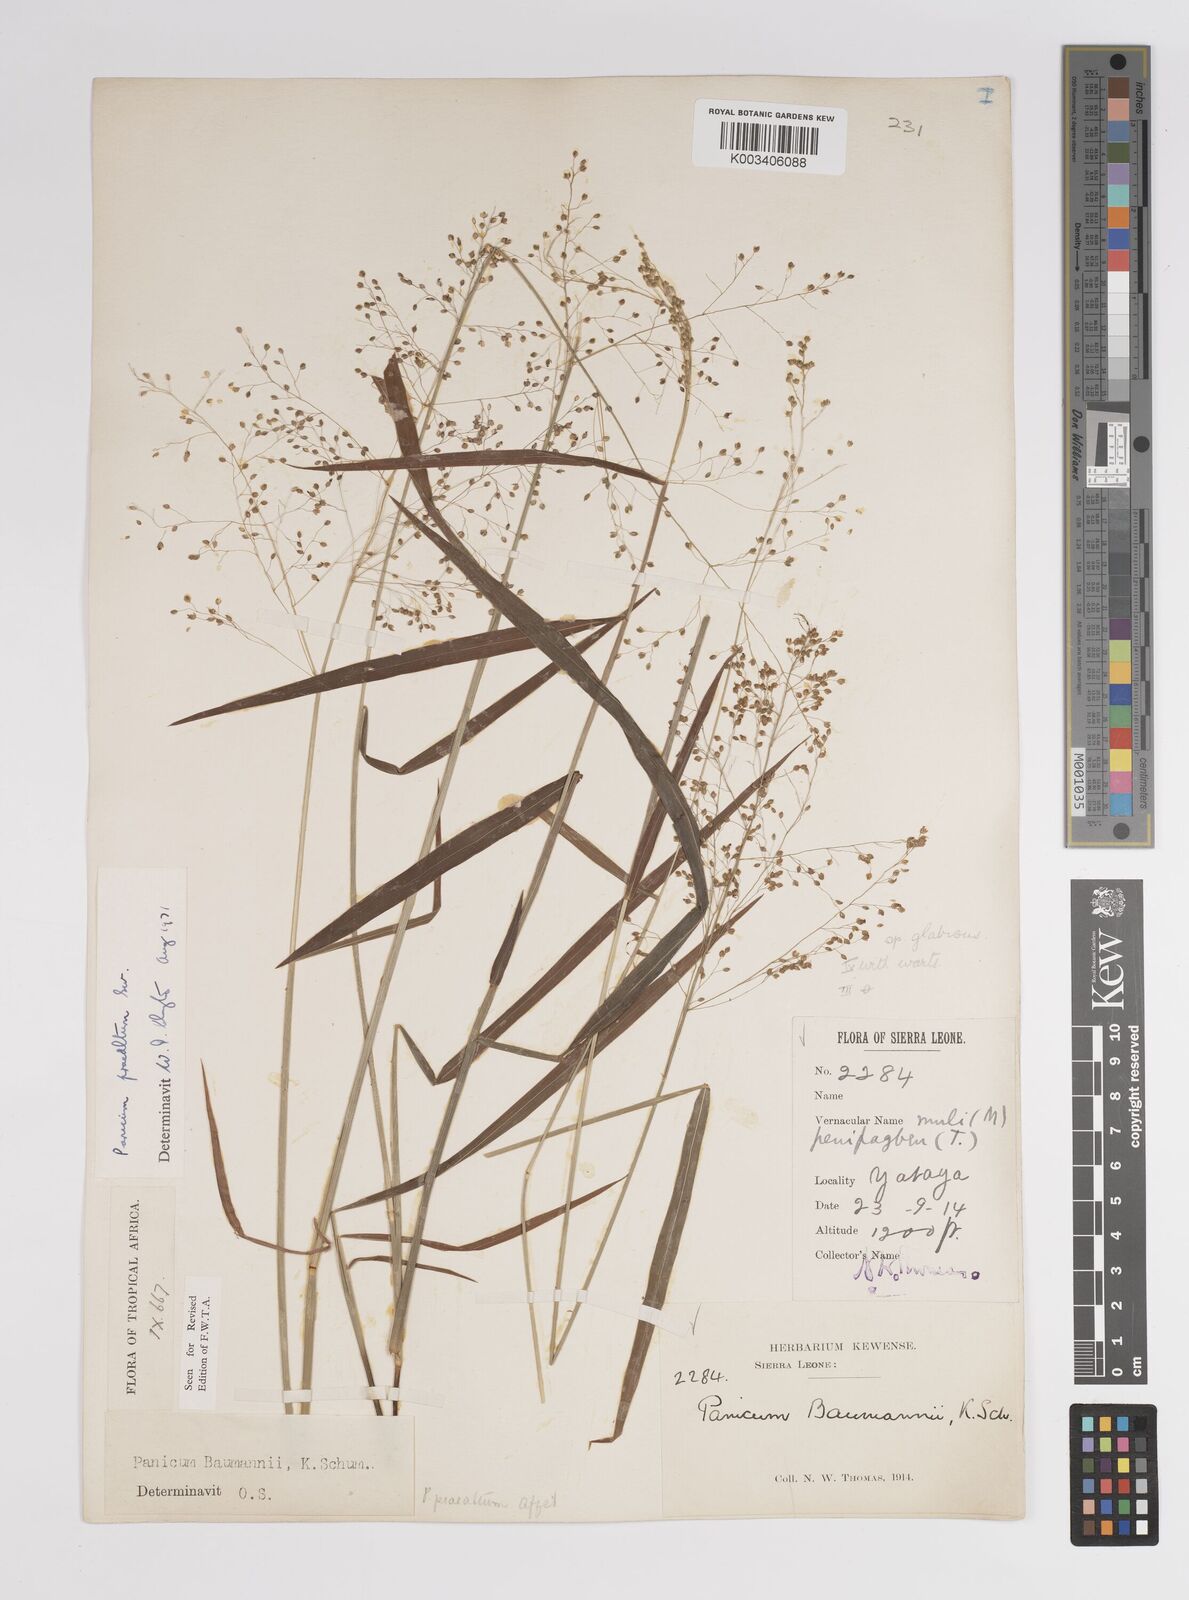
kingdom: Plantae
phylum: Tracheophyta
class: Liliopsida
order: Poales
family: Poaceae
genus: Trichanthecium
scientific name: Trichanthecium praealtum
